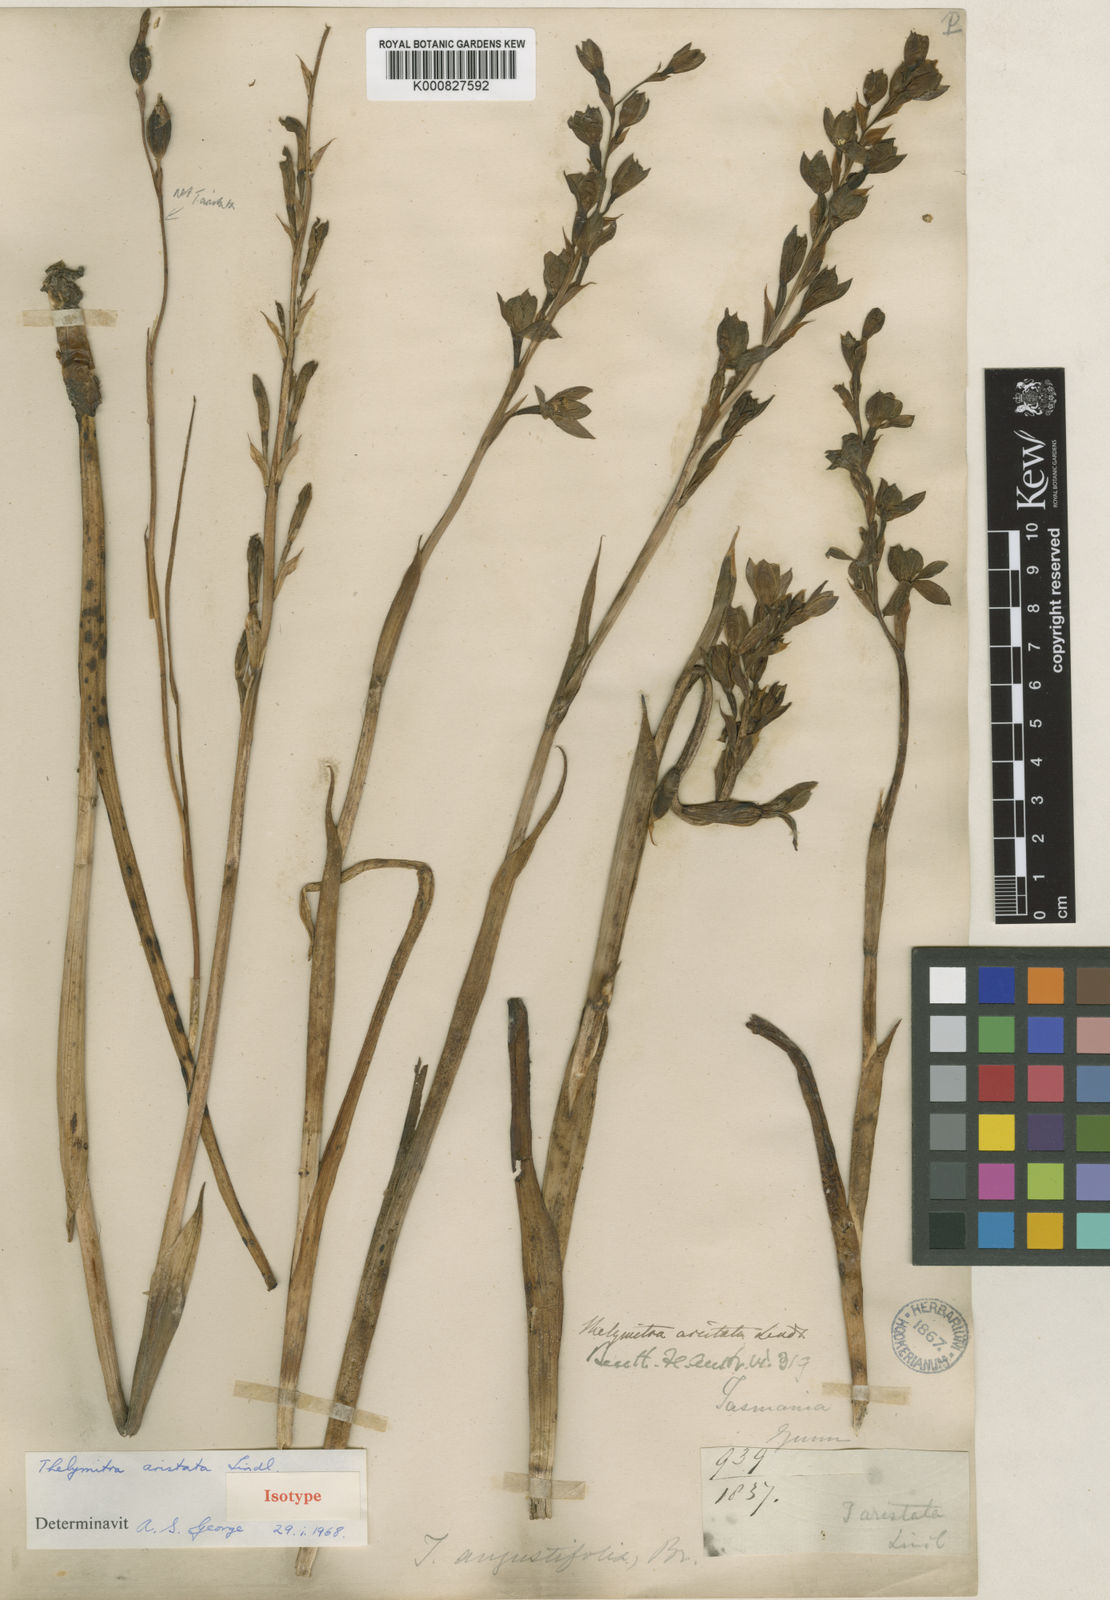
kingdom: Plantae
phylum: Tracheophyta
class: Liliopsida
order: Asparagales
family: Orchidaceae
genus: Thelymitra
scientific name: Thelymitra aristata
